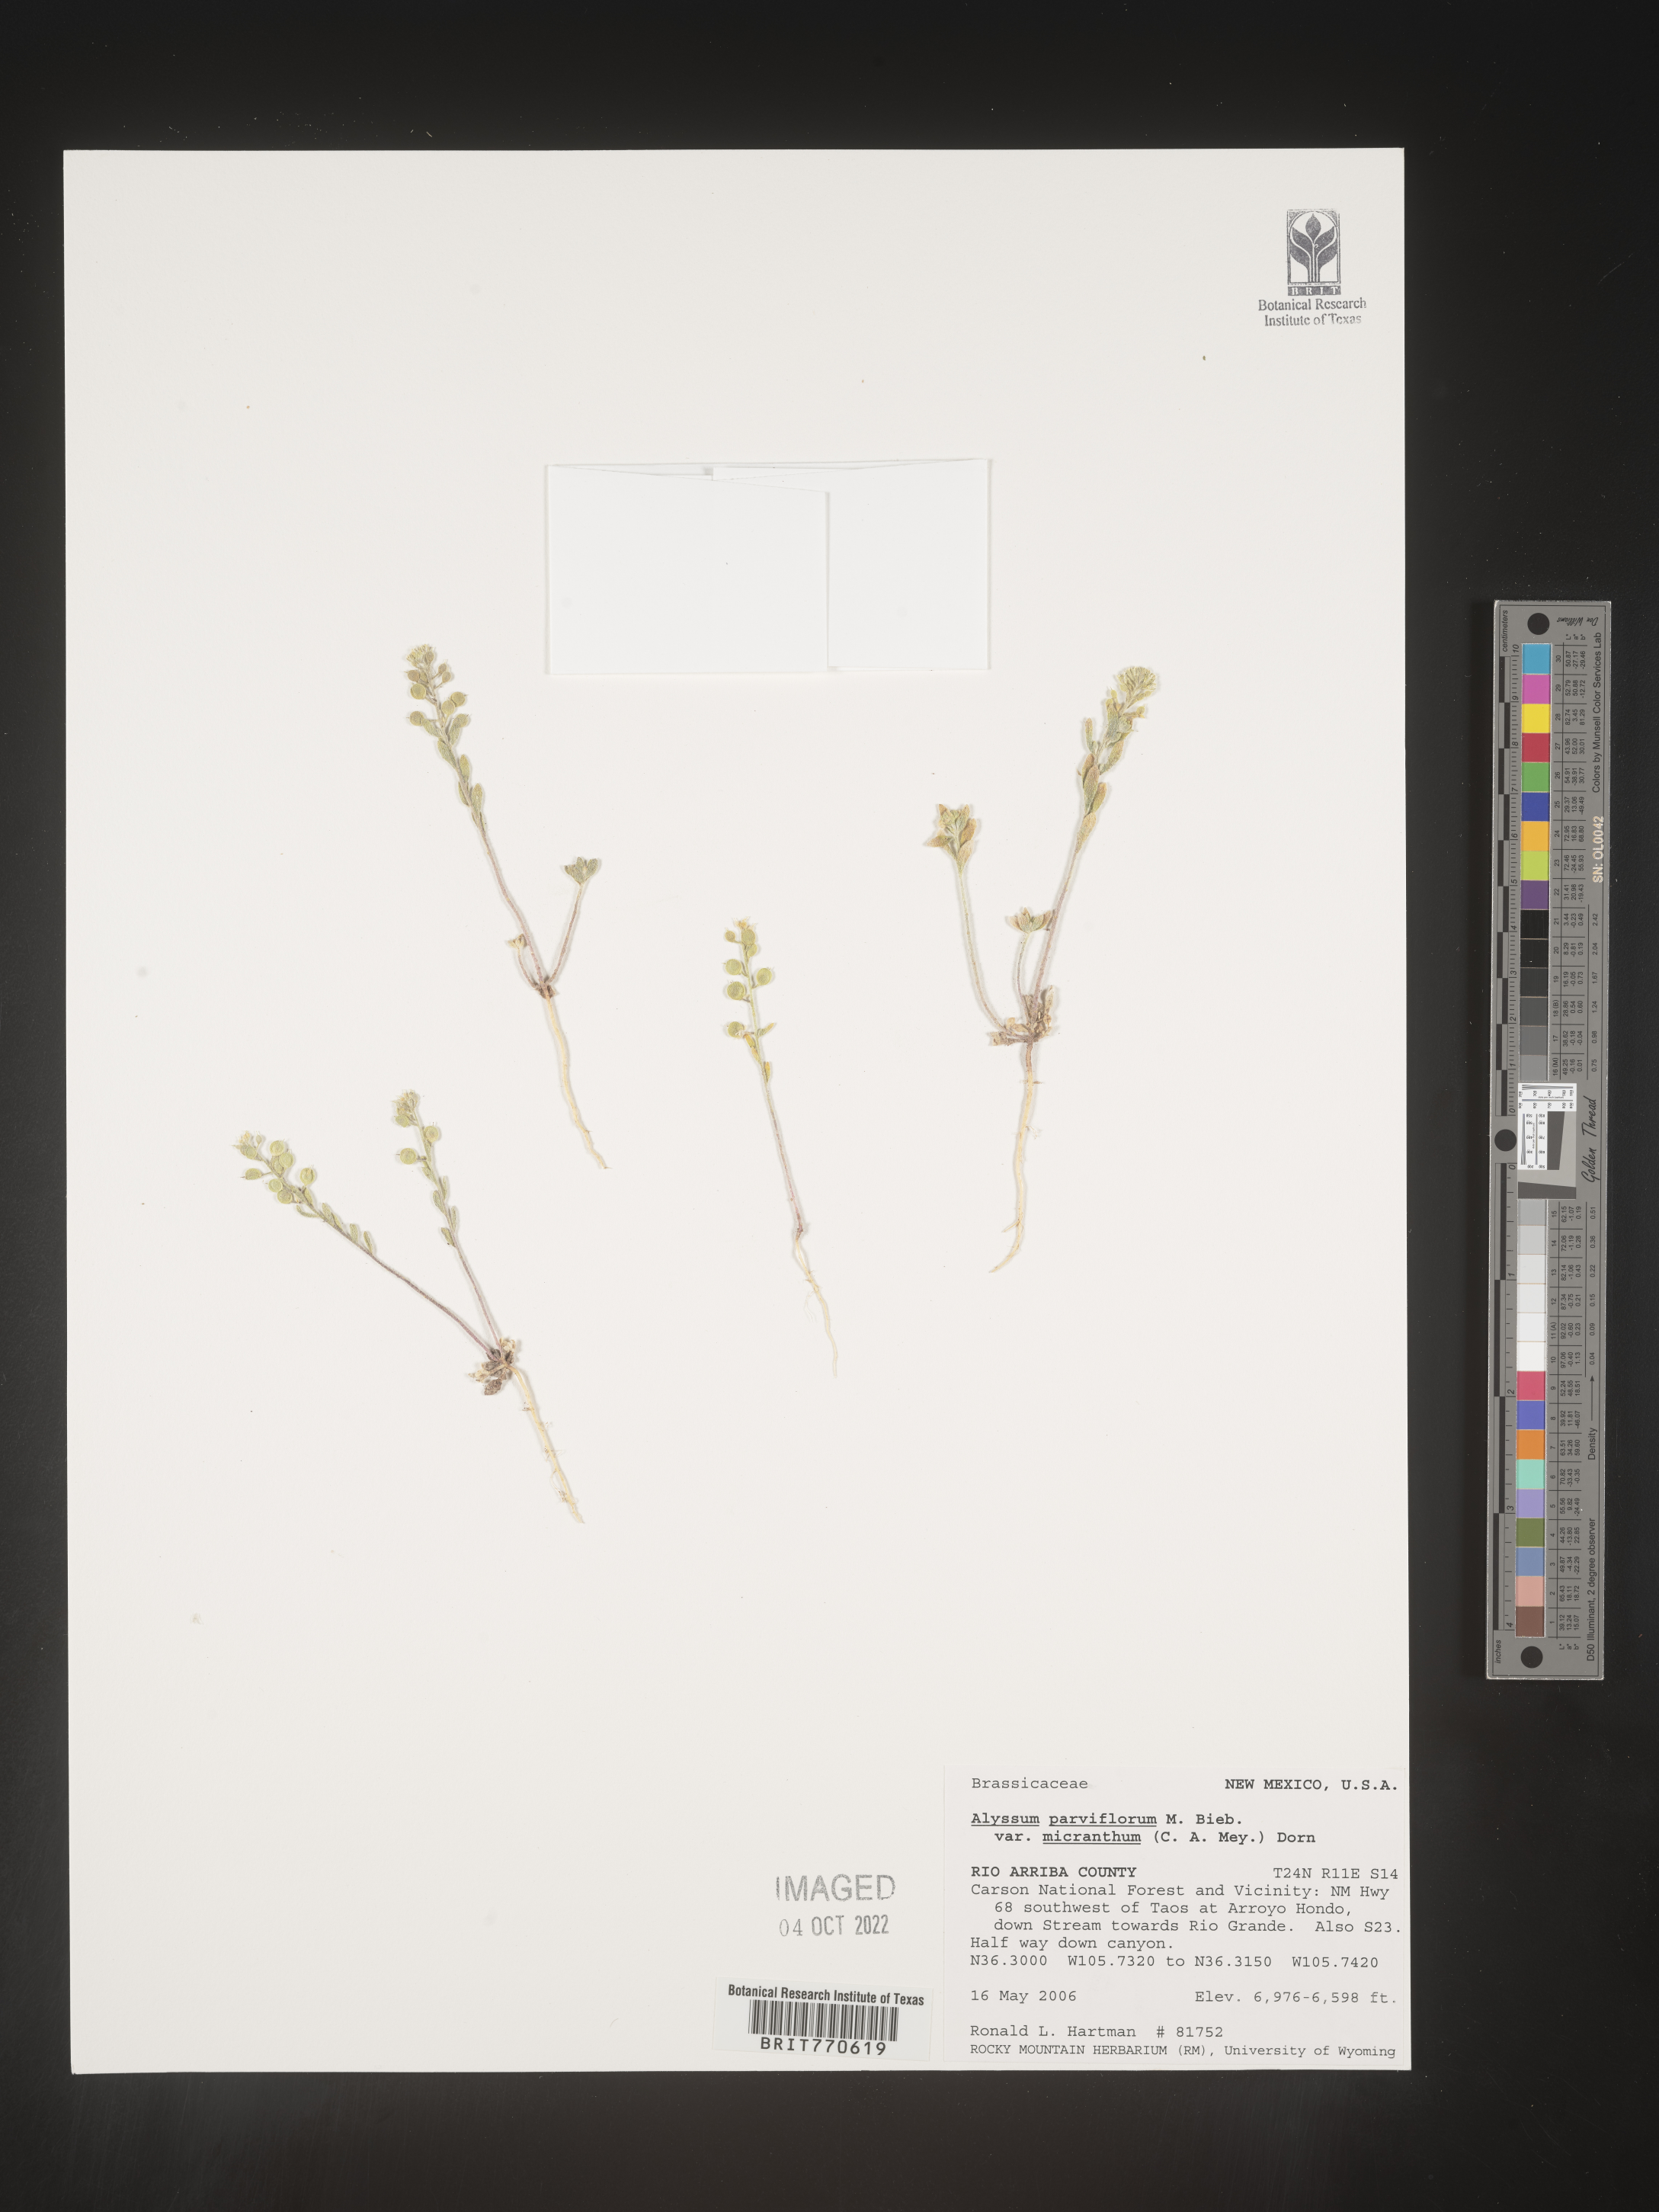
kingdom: Plantae
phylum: Tracheophyta
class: Magnoliopsida
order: Brassicales
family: Brassicaceae
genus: Alyssum
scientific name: Alyssum
